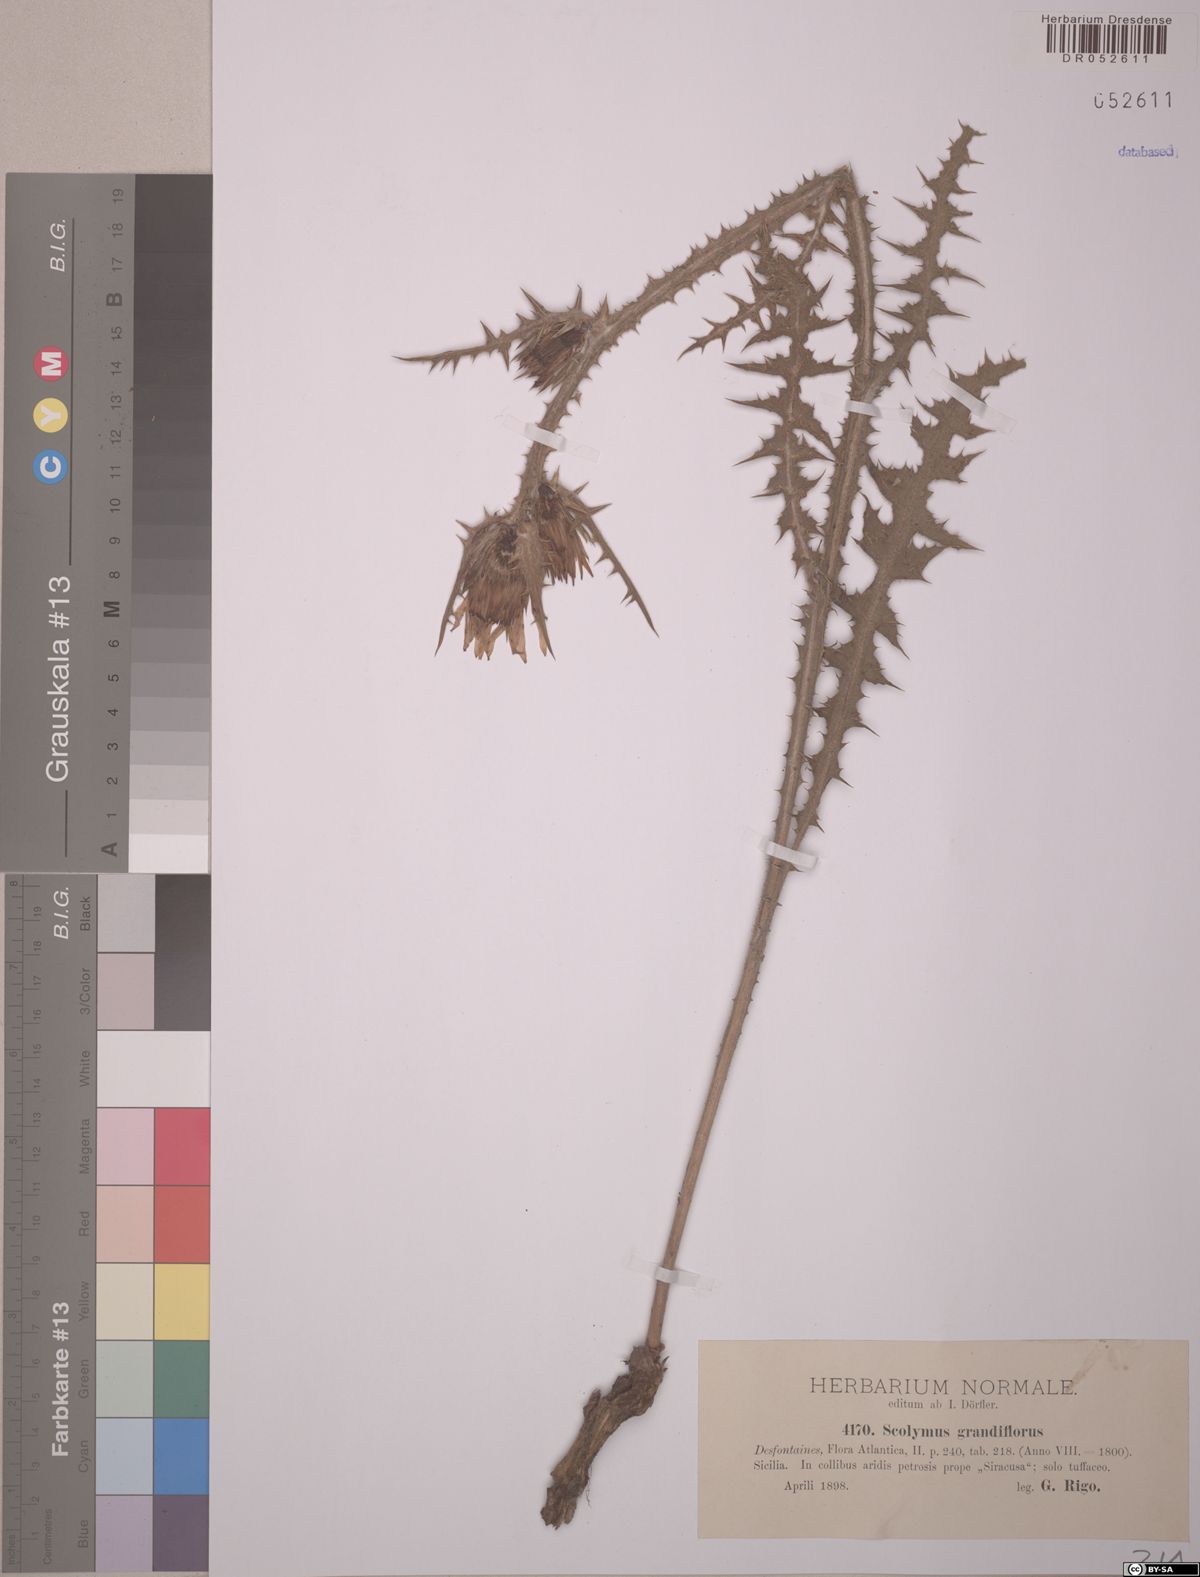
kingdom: Plantae
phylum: Tracheophyta
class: Magnoliopsida
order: Asterales
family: Asteraceae
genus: Scolymus
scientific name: Scolymus grandiflorus
